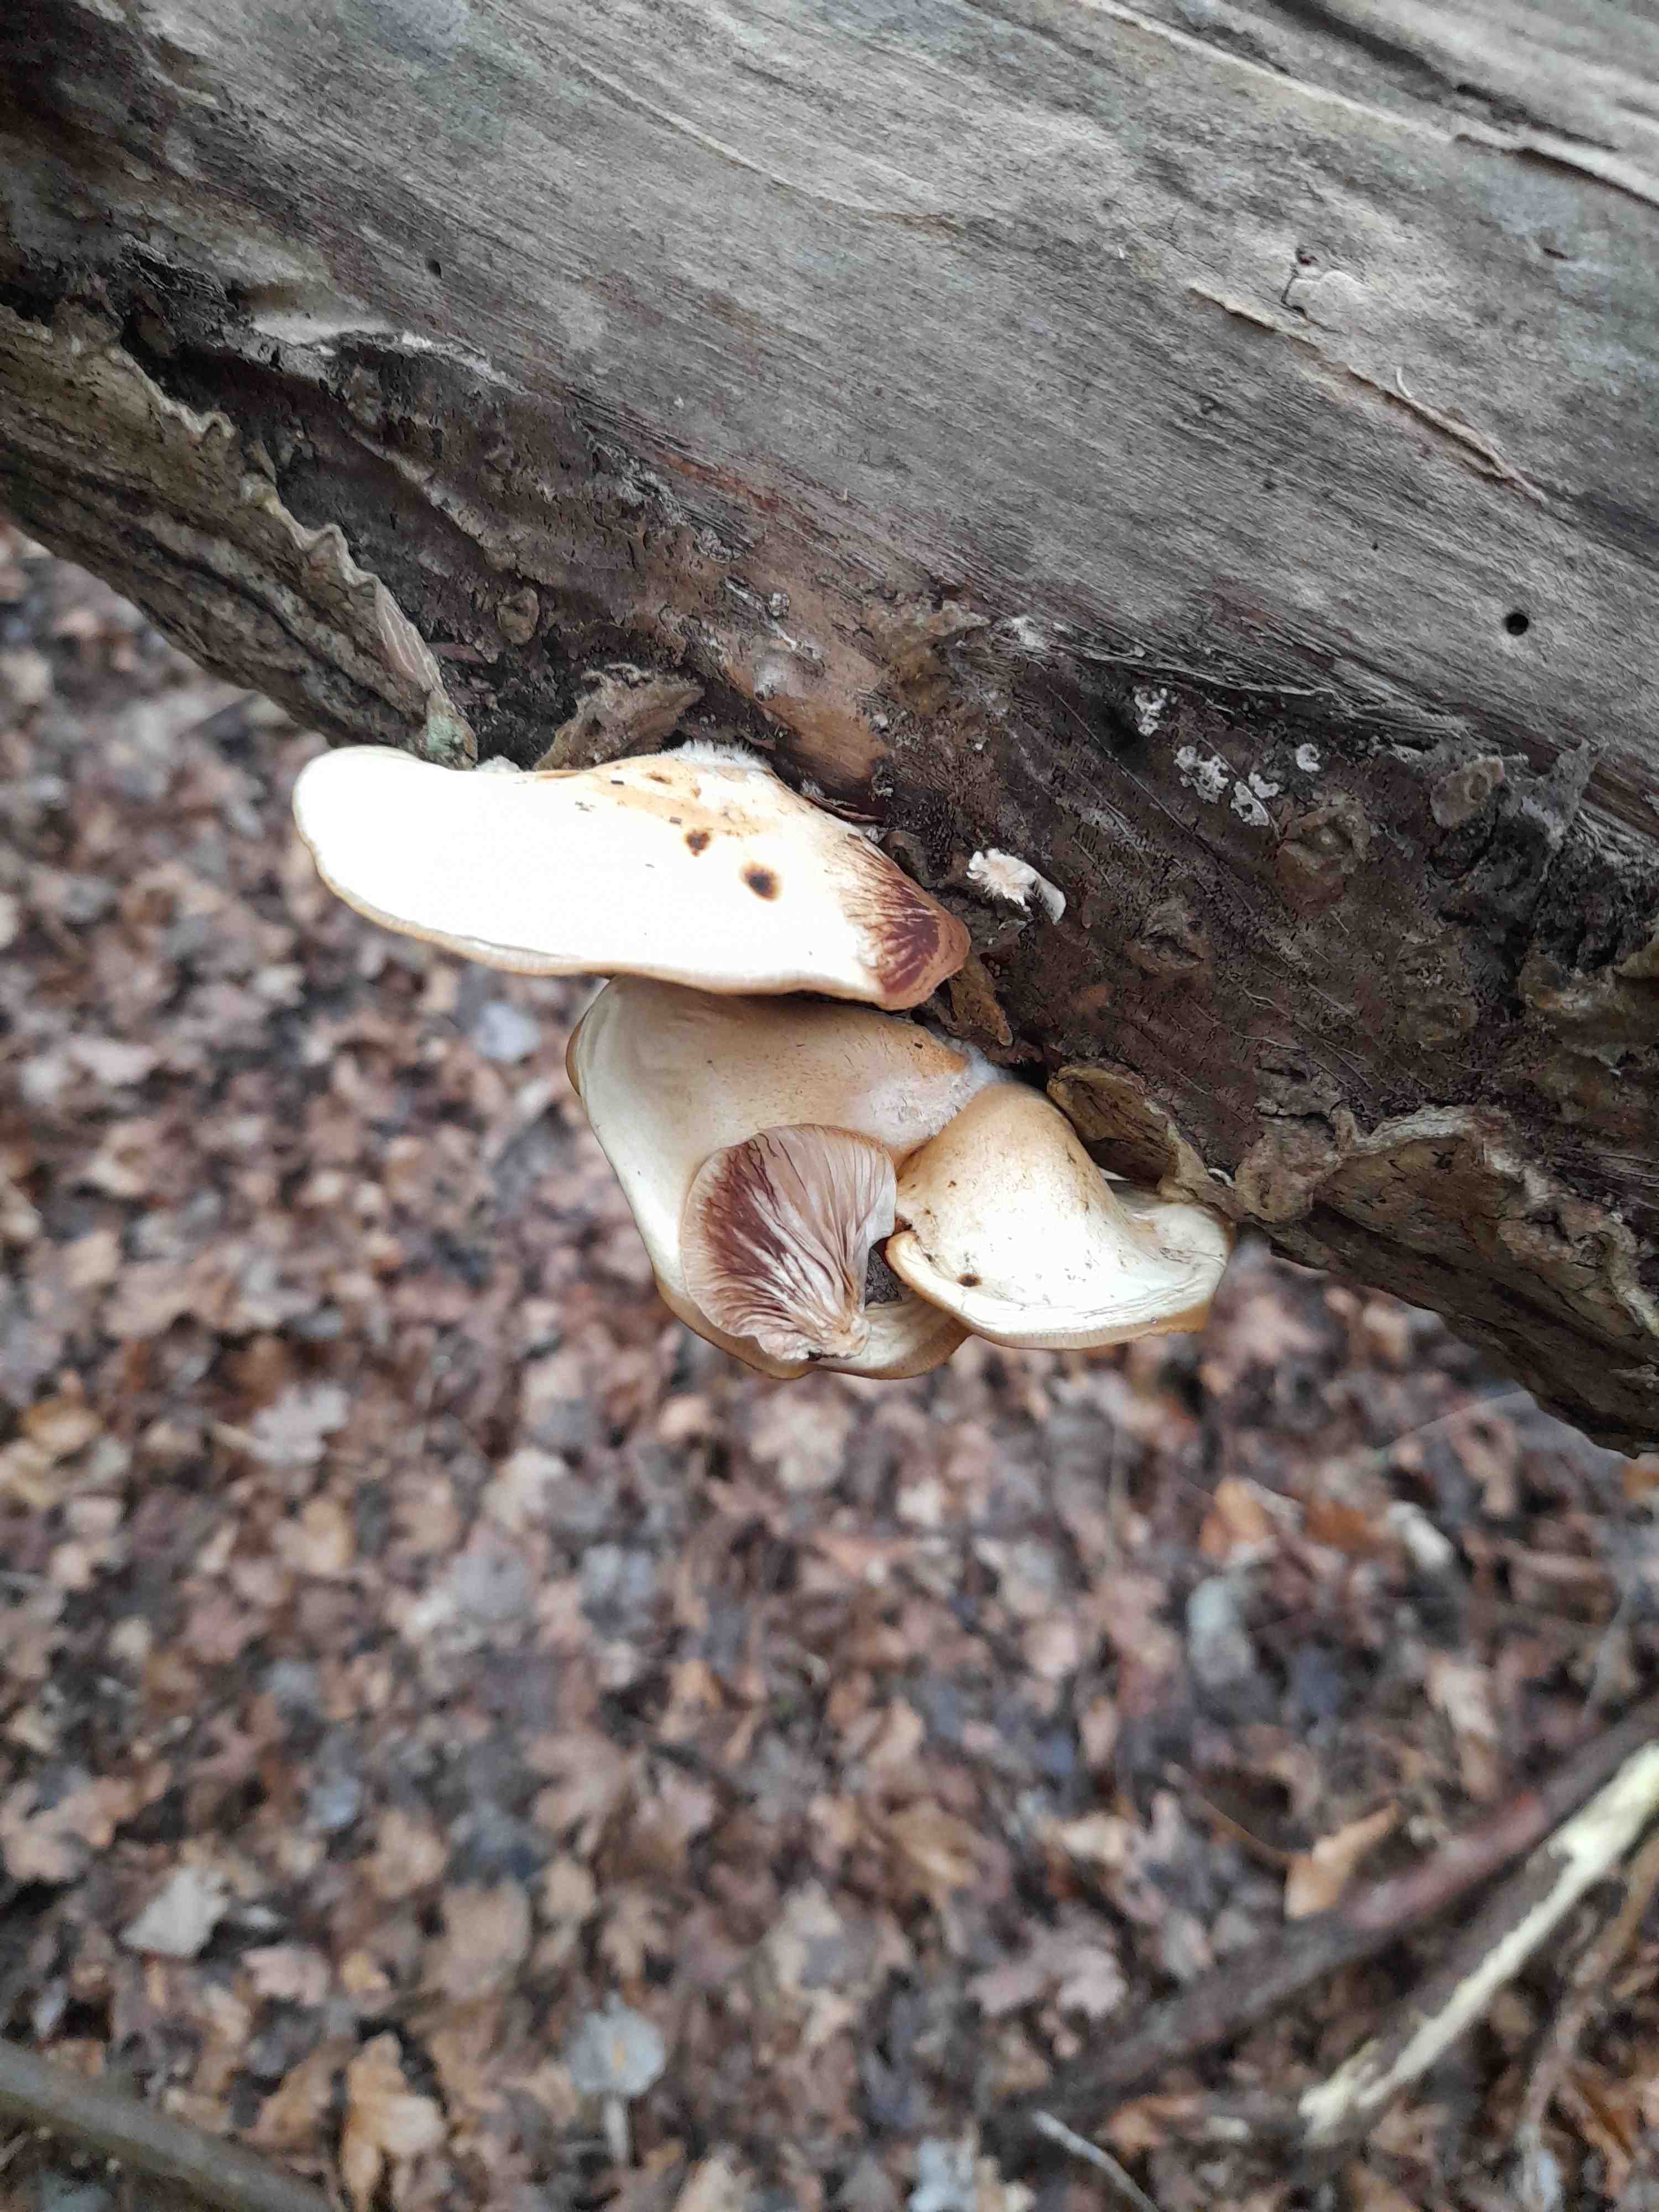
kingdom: Fungi
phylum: Basidiomycota
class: Agaricomycetes
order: Agaricales
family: Crepidotaceae
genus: Crepidotus
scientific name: Crepidotus mollis
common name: blød muslingesvamp
